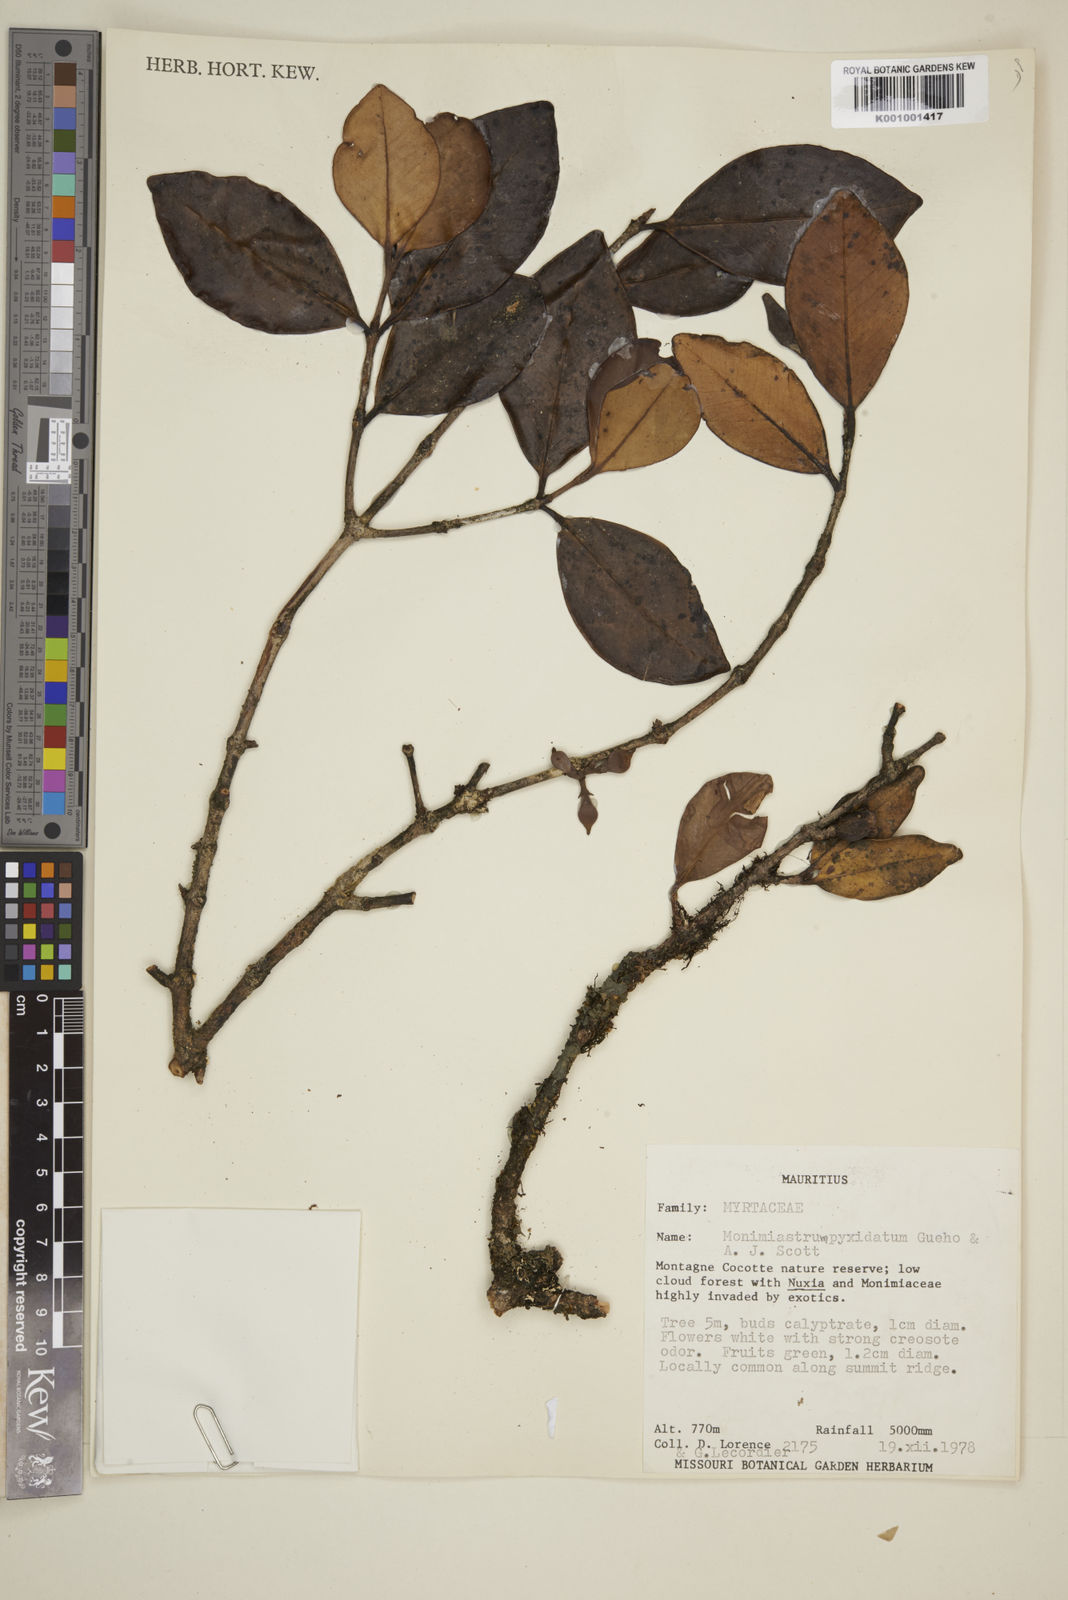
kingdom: Plantae
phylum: Tracheophyta
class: Magnoliopsida
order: Myrtales
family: Myrtaceae
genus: Eugenia
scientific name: Eugenia pyxidata
